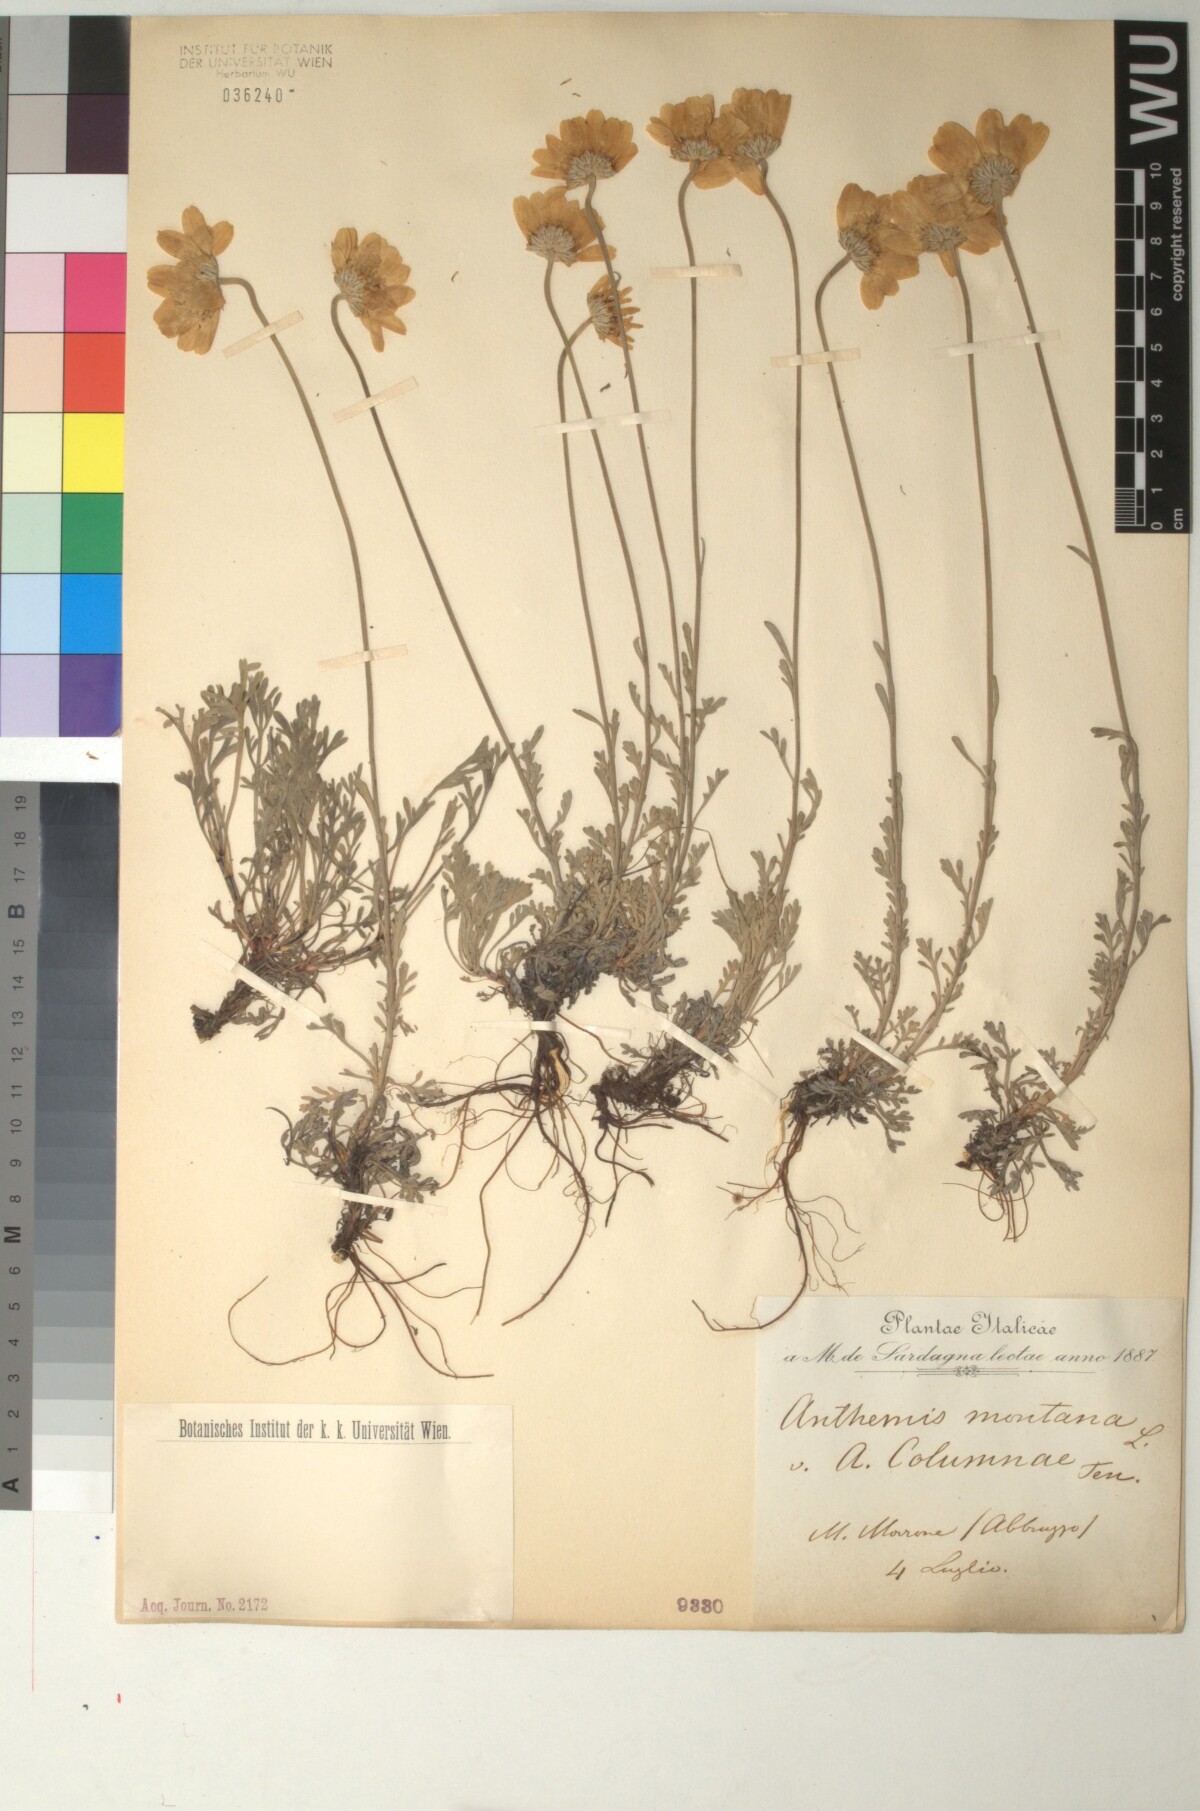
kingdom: Plantae
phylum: Tracheophyta
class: Magnoliopsida
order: Asterales
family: Asteraceae
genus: Anthemis
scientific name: Anthemis cretica
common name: Mountain dog-daisy
